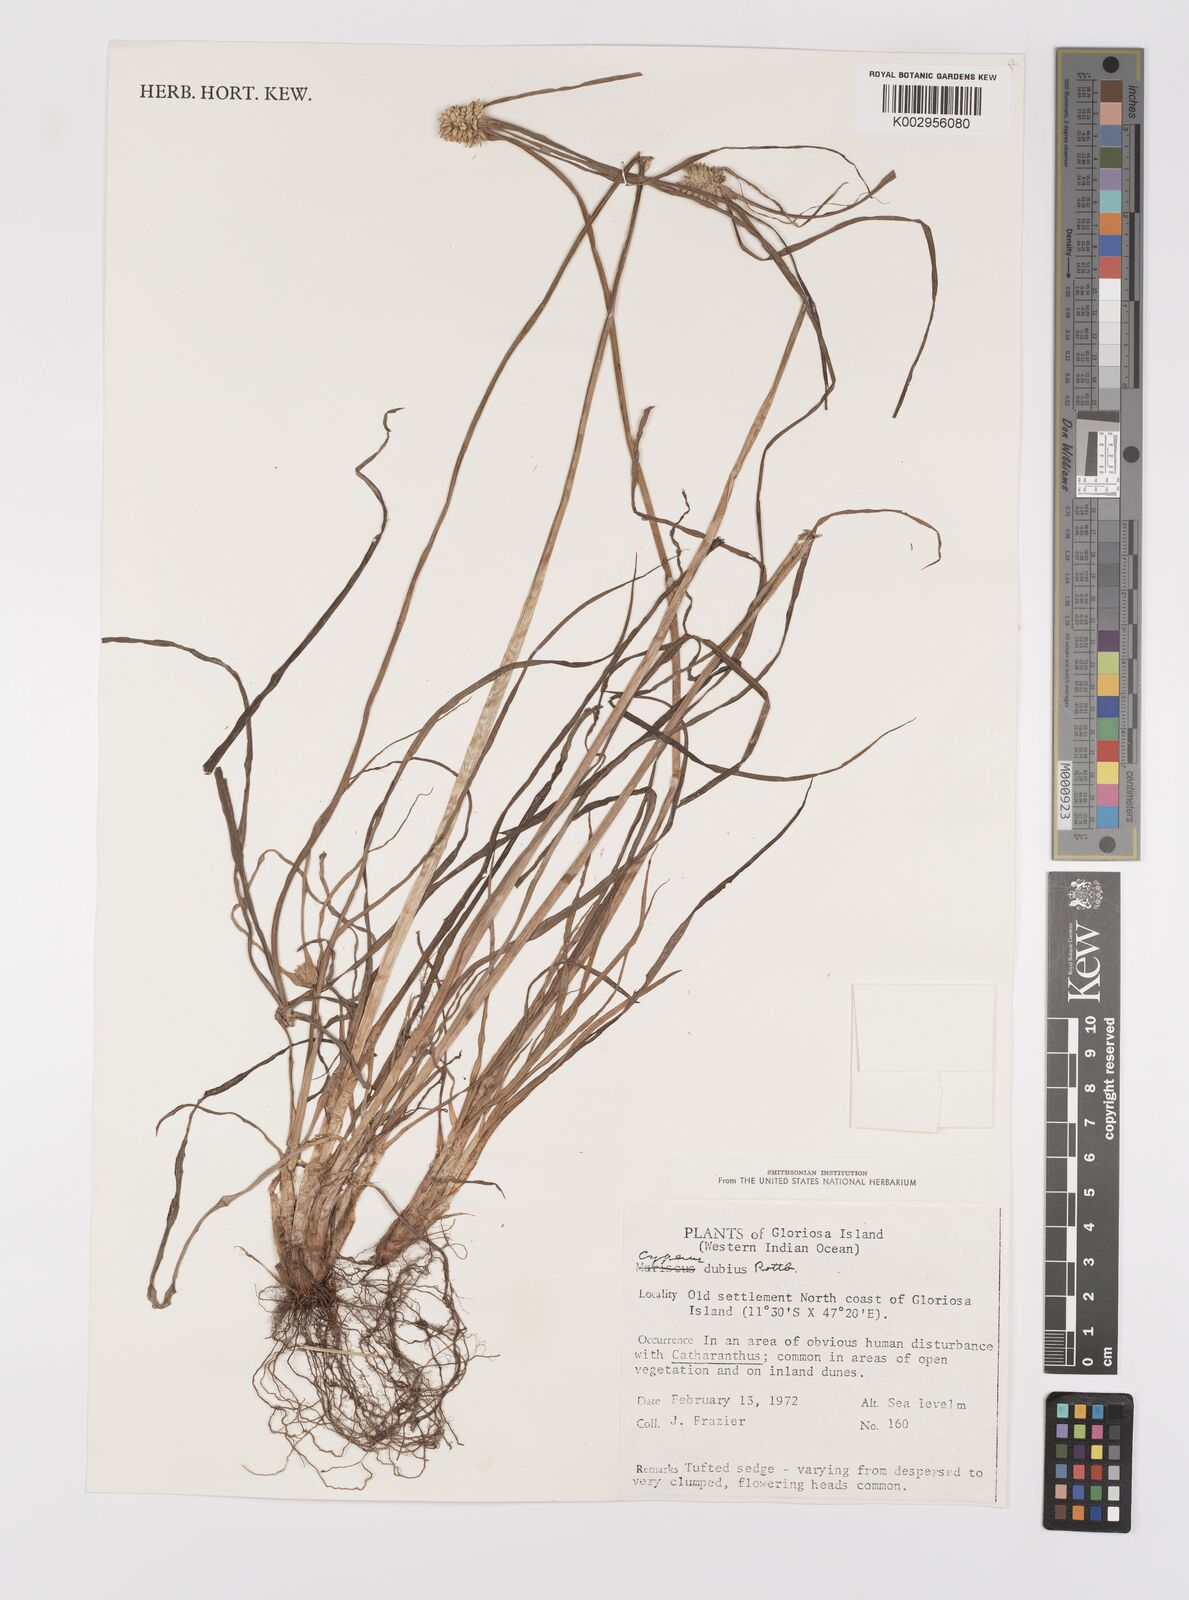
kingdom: Plantae
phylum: Tracheophyta
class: Liliopsida
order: Poales
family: Cyperaceae
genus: Cyperus
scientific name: Cyperus dubius
